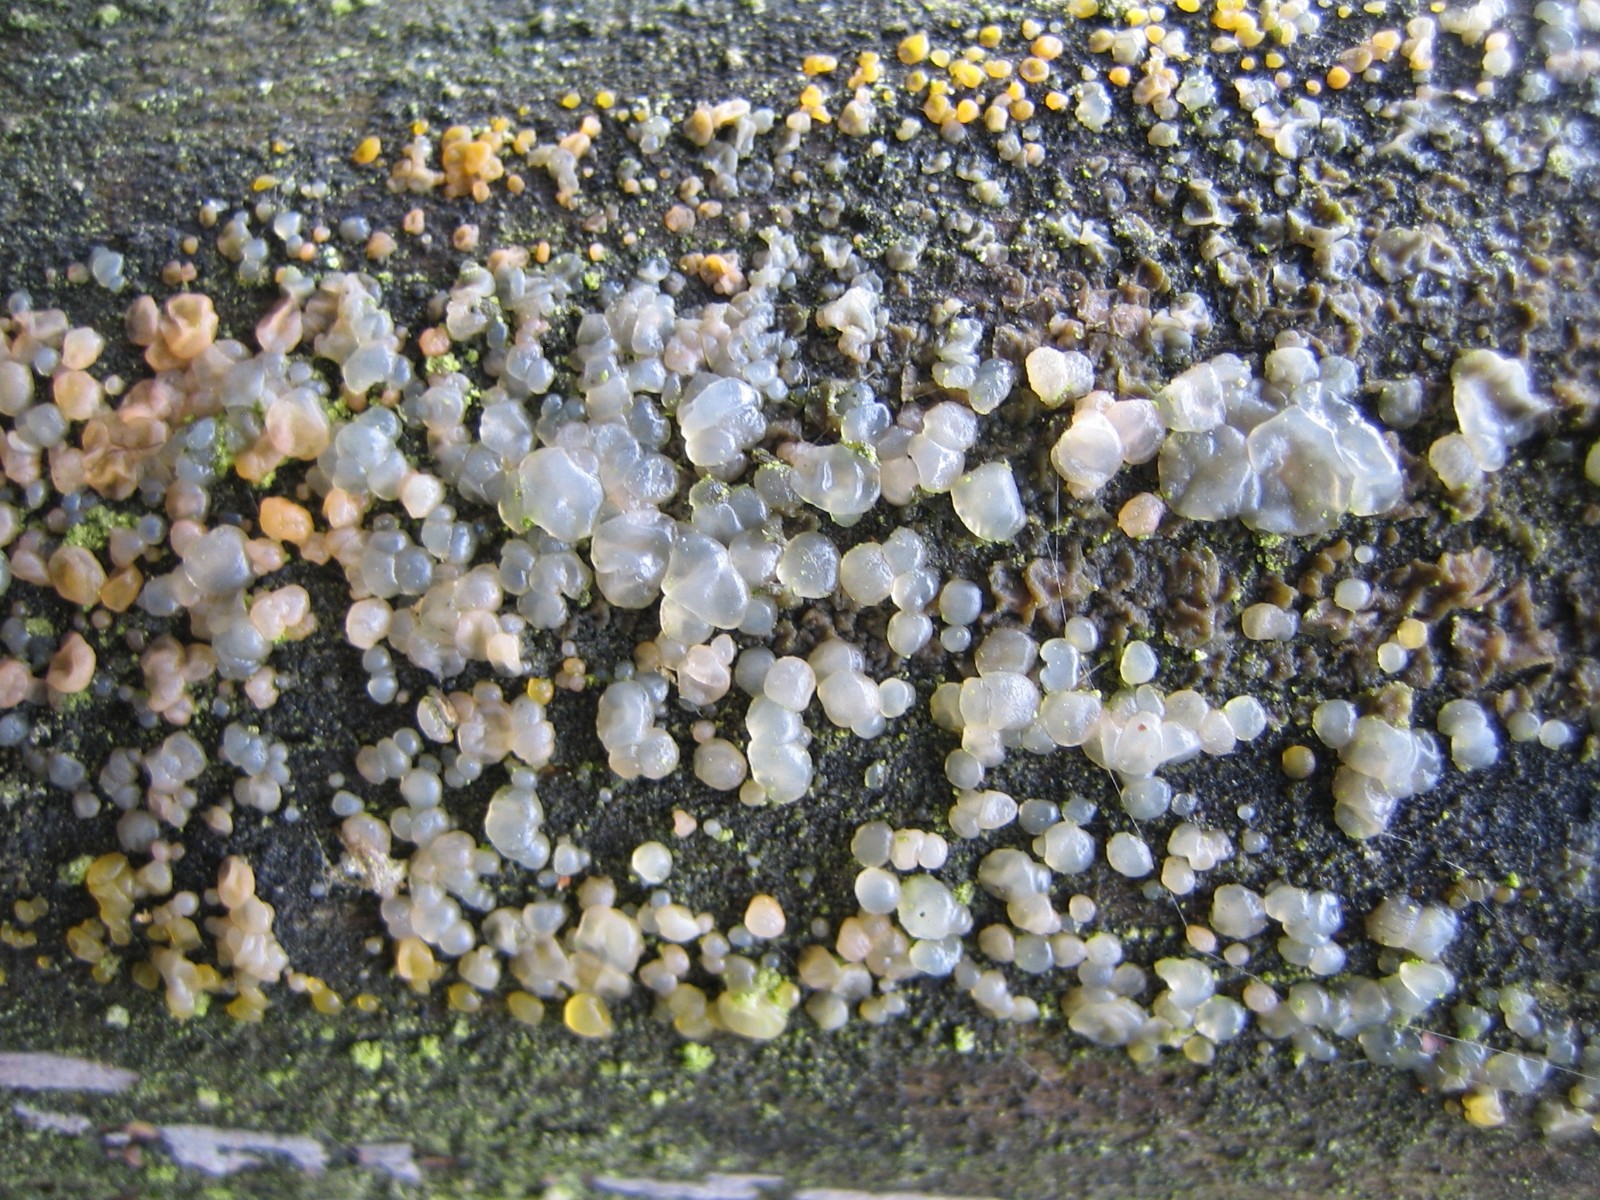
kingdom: Fungi
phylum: Basidiomycota
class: Dacrymycetes
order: Dacrymycetales
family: Dacrymycetaceae
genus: Dacrymyces
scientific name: Dacrymyces
